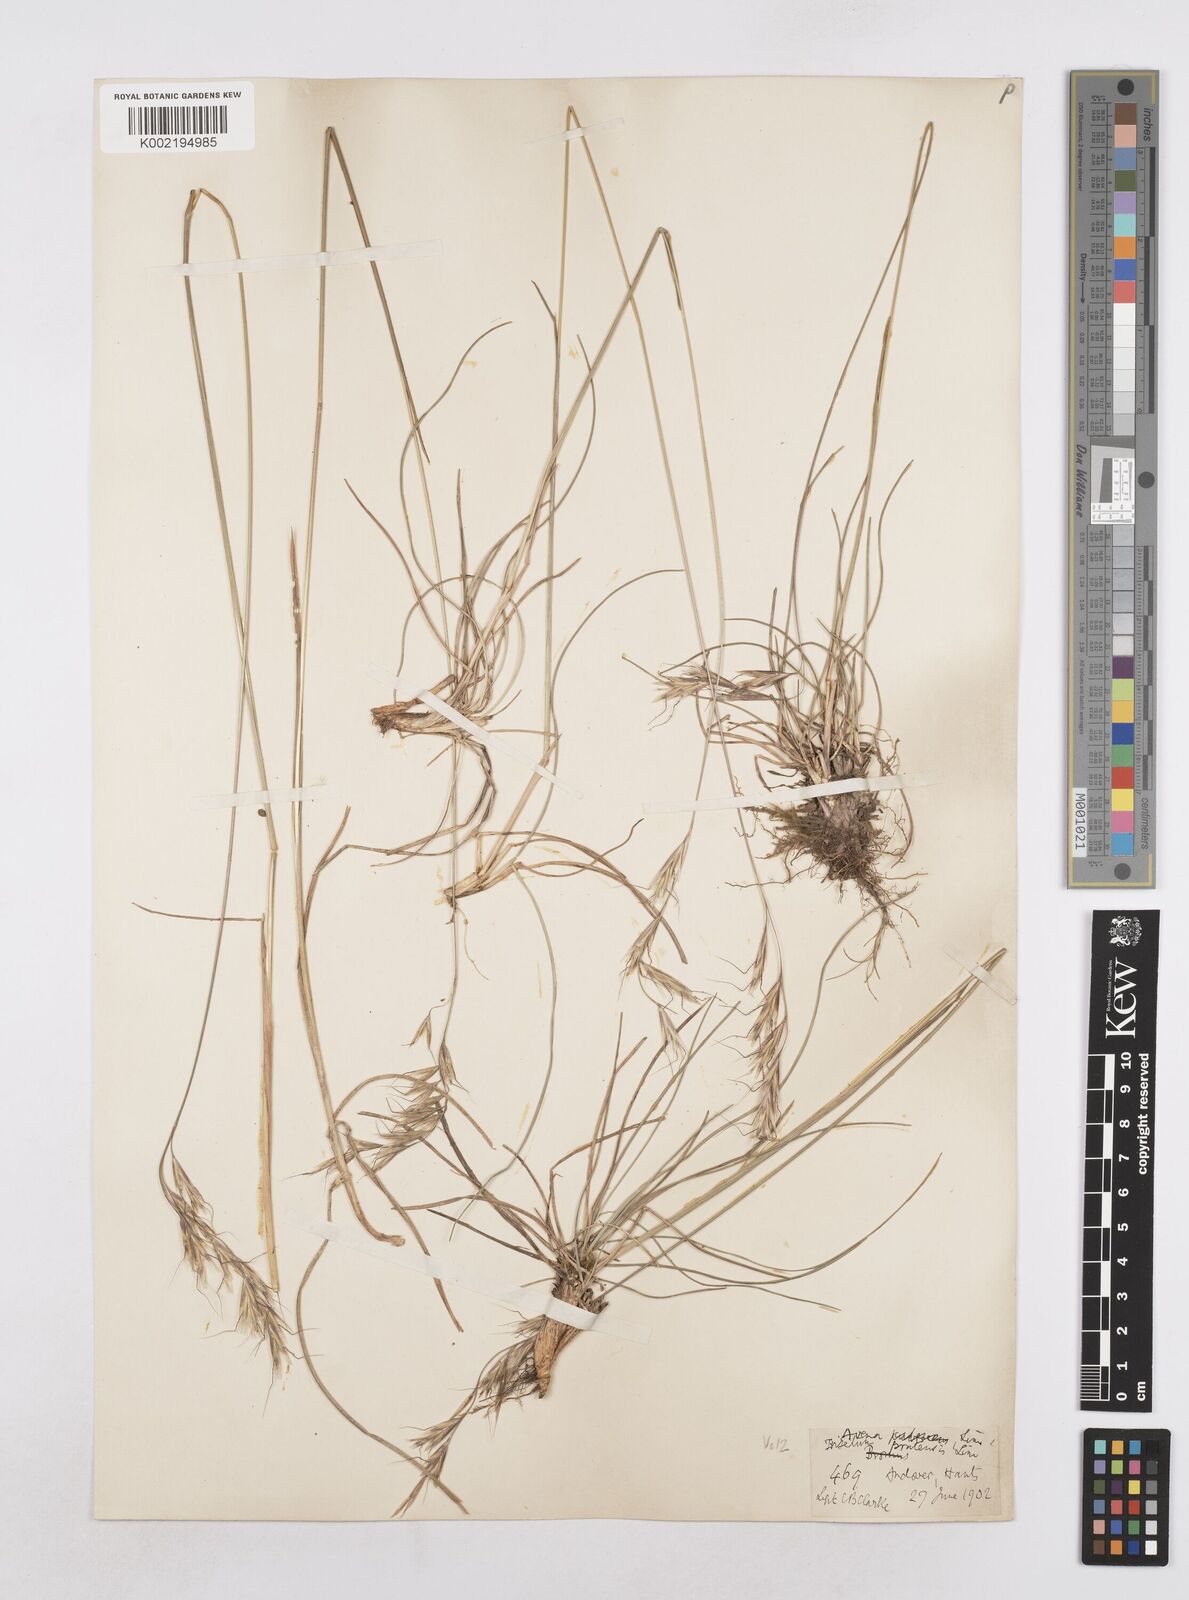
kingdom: Plantae
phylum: Tracheophyta
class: Liliopsida
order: Poales
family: Poaceae
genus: Helictochloa
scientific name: Helictochloa pratensis
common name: Meadow oat grass
